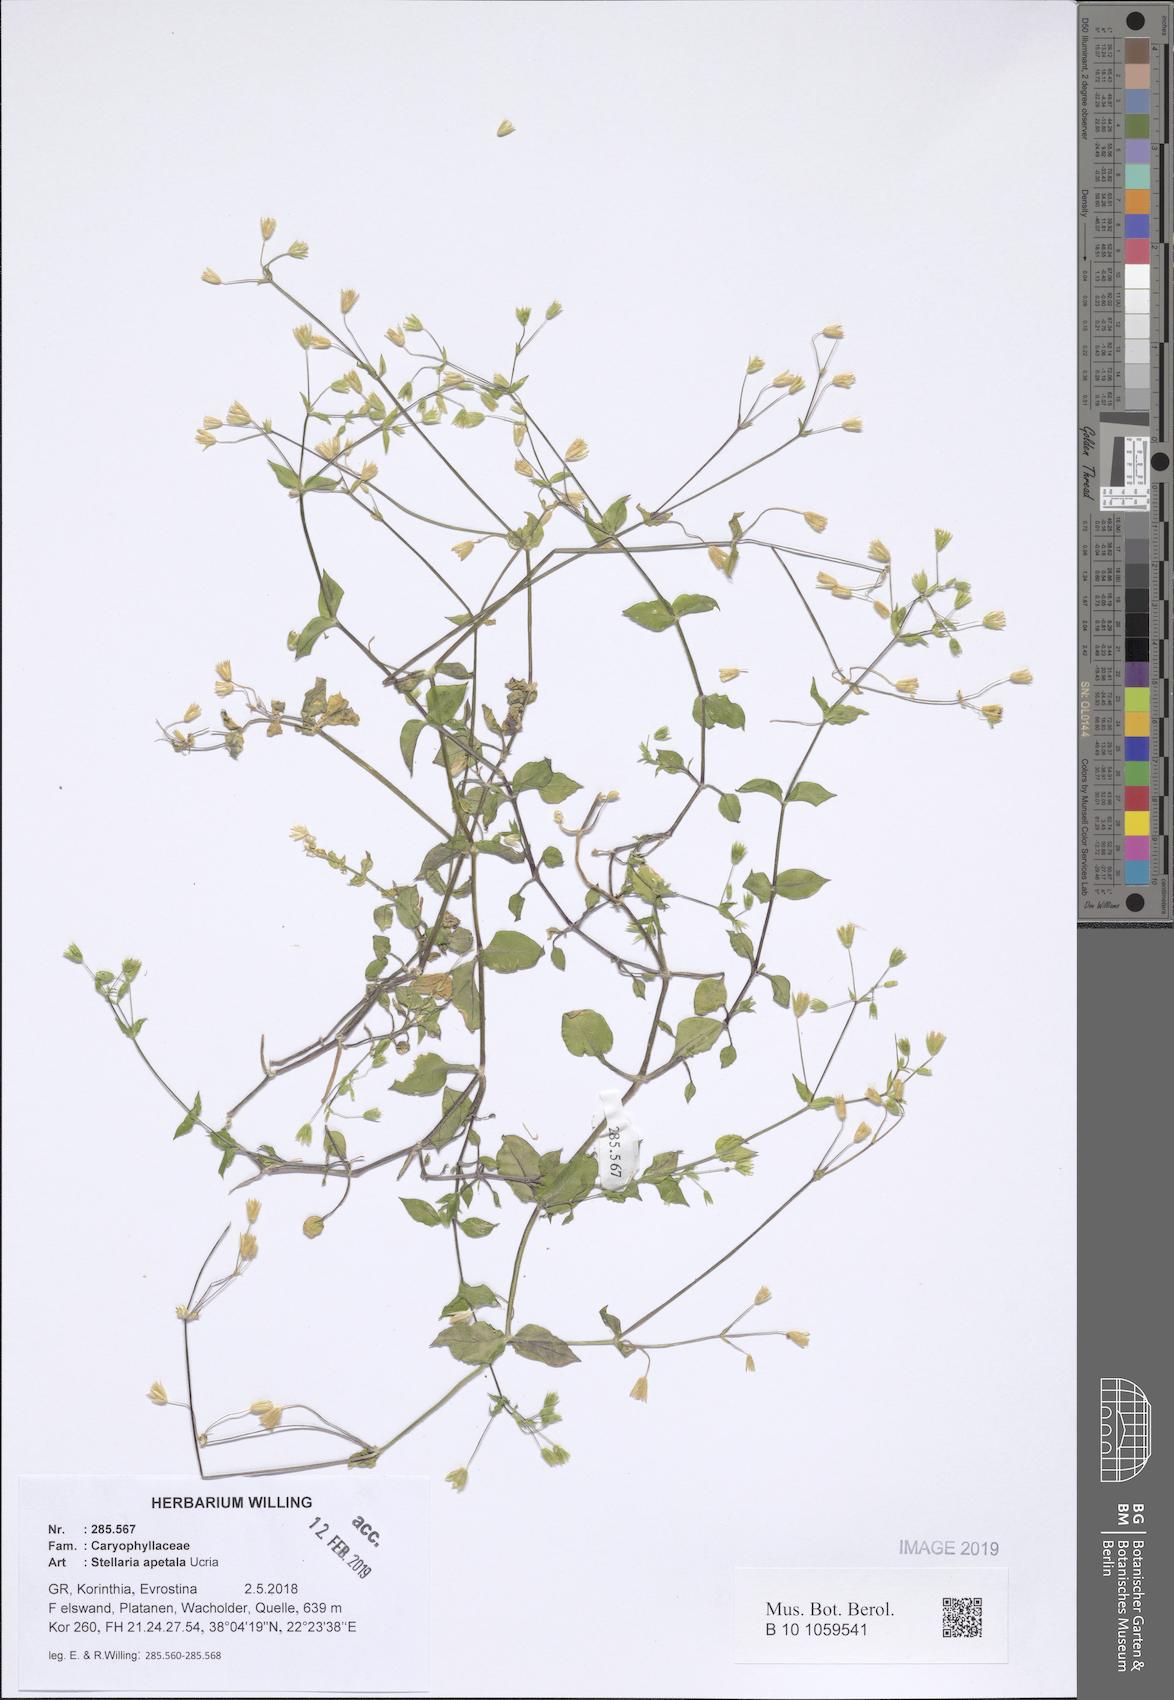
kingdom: Plantae
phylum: Tracheophyta
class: Magnoliopsida
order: Caryophyllales
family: Caryophyllaceae
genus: Stellaria
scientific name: Stellaria apetala
